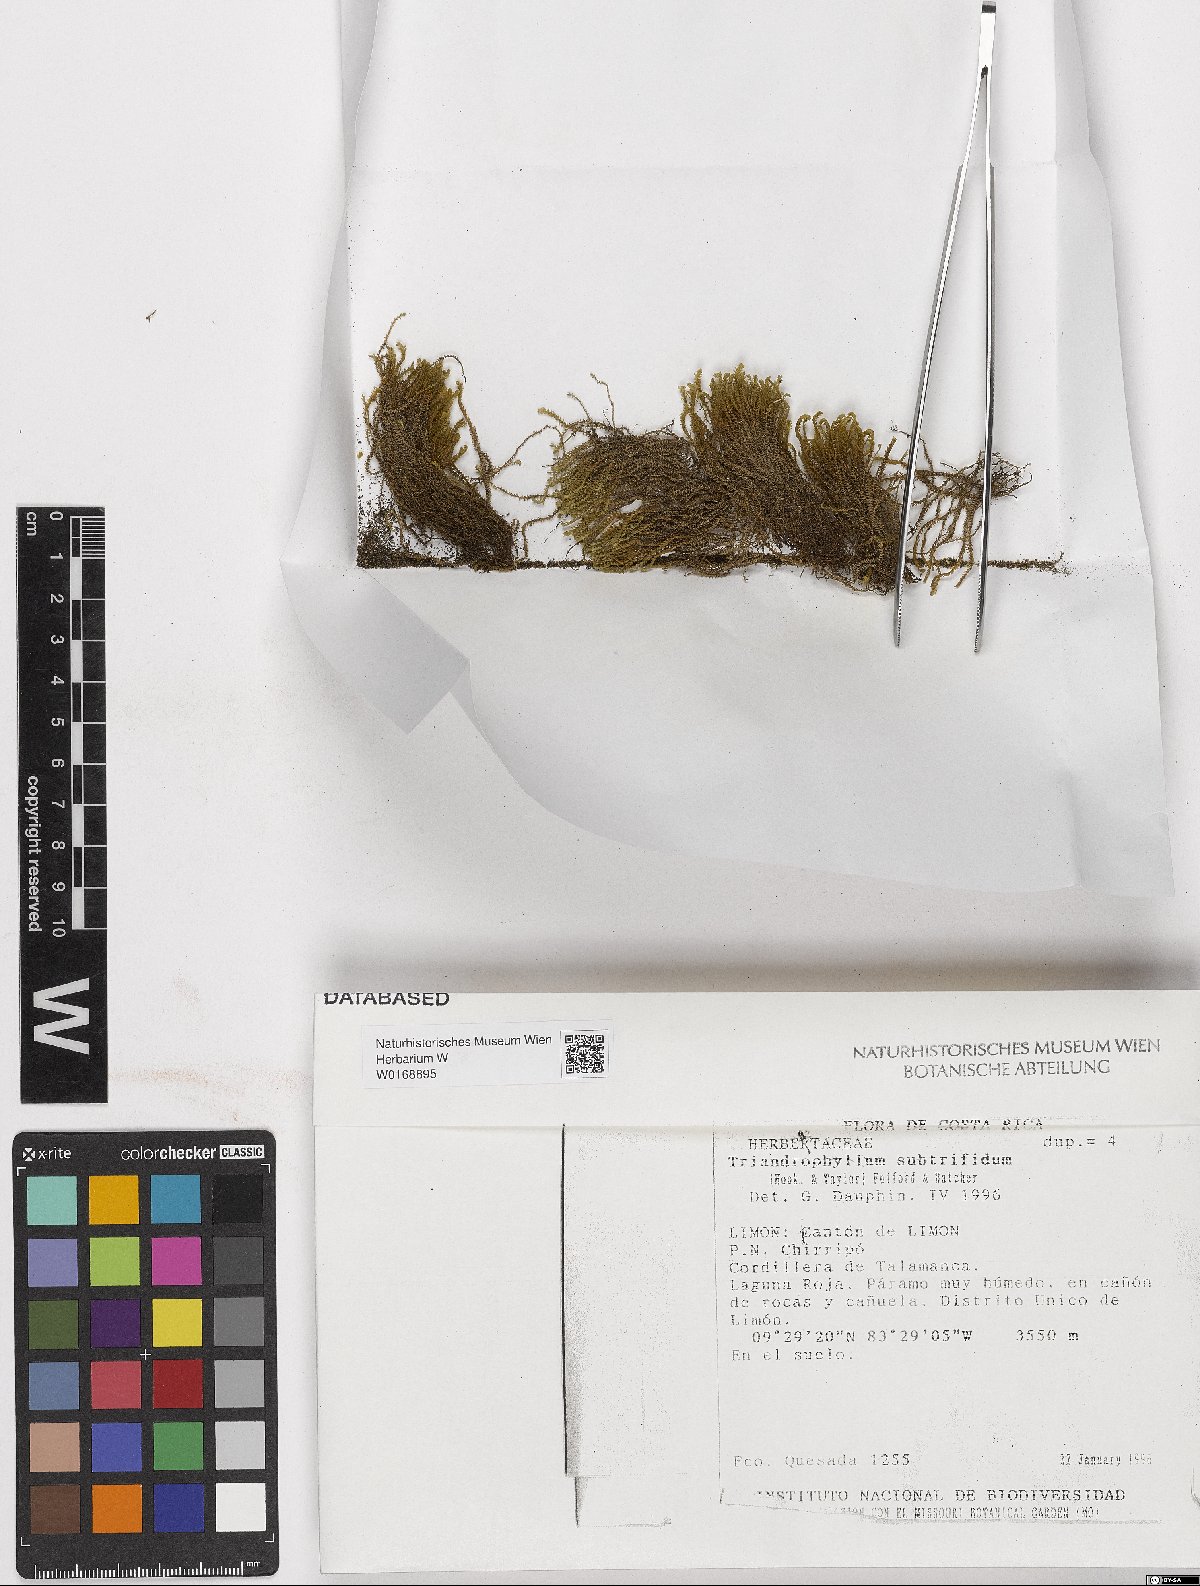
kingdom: Plantae
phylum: Marchantiophyta
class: Jungermanniopsida
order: Jungermanniales
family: Herbertaceae
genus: Triandrophyllum
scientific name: Triandrophyllum subtrifidum
